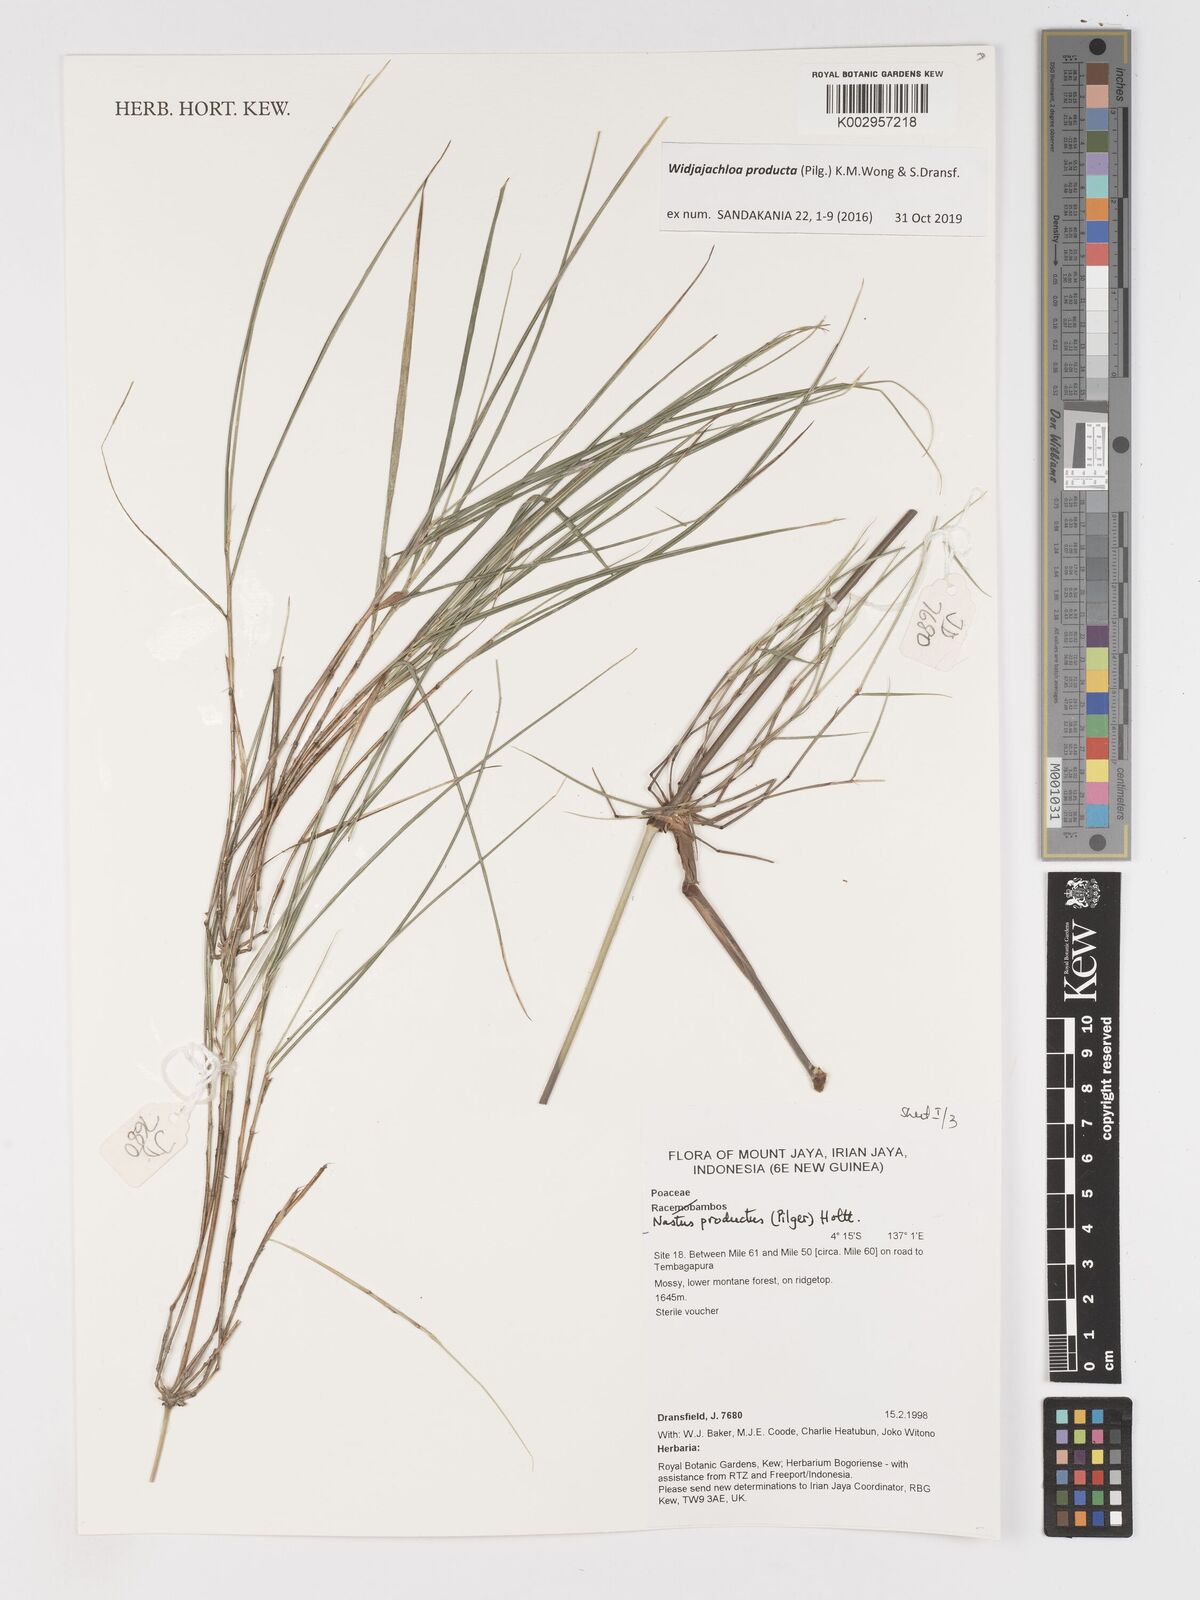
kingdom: Plantae
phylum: Tracheophyta
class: Liliopsida
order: Poales
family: Poaceae
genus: Widjajachloa
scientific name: Widjajachloa
